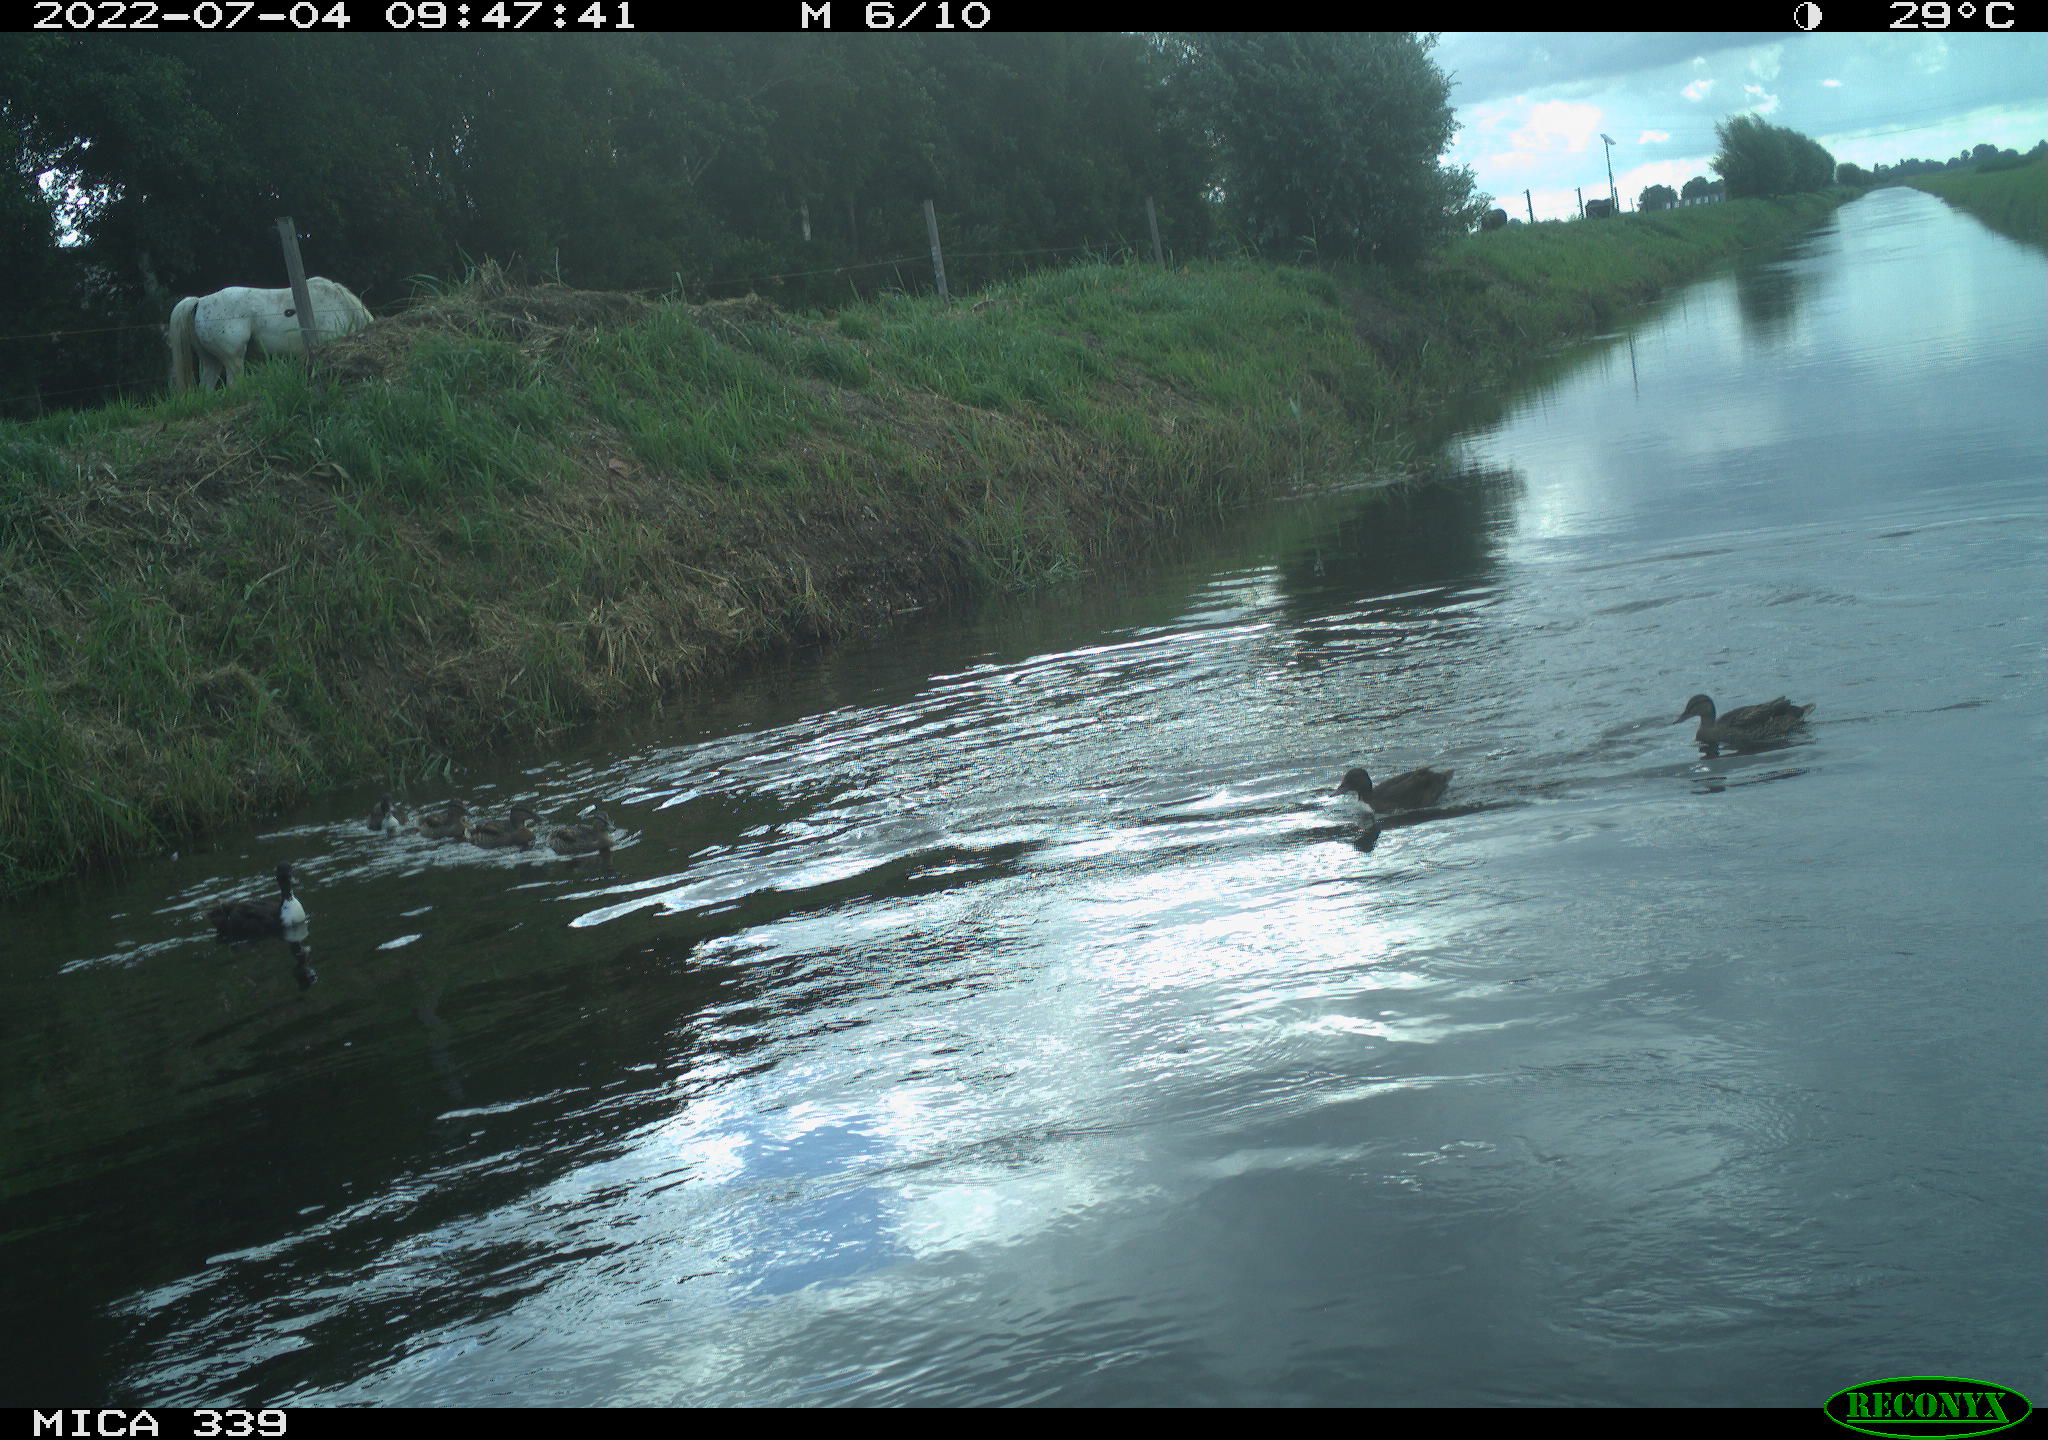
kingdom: Animalia
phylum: Chordata
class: Aves
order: Anseriformes
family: Anatidae
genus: Anas
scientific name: Anas platyrhynchos
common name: Mallard
